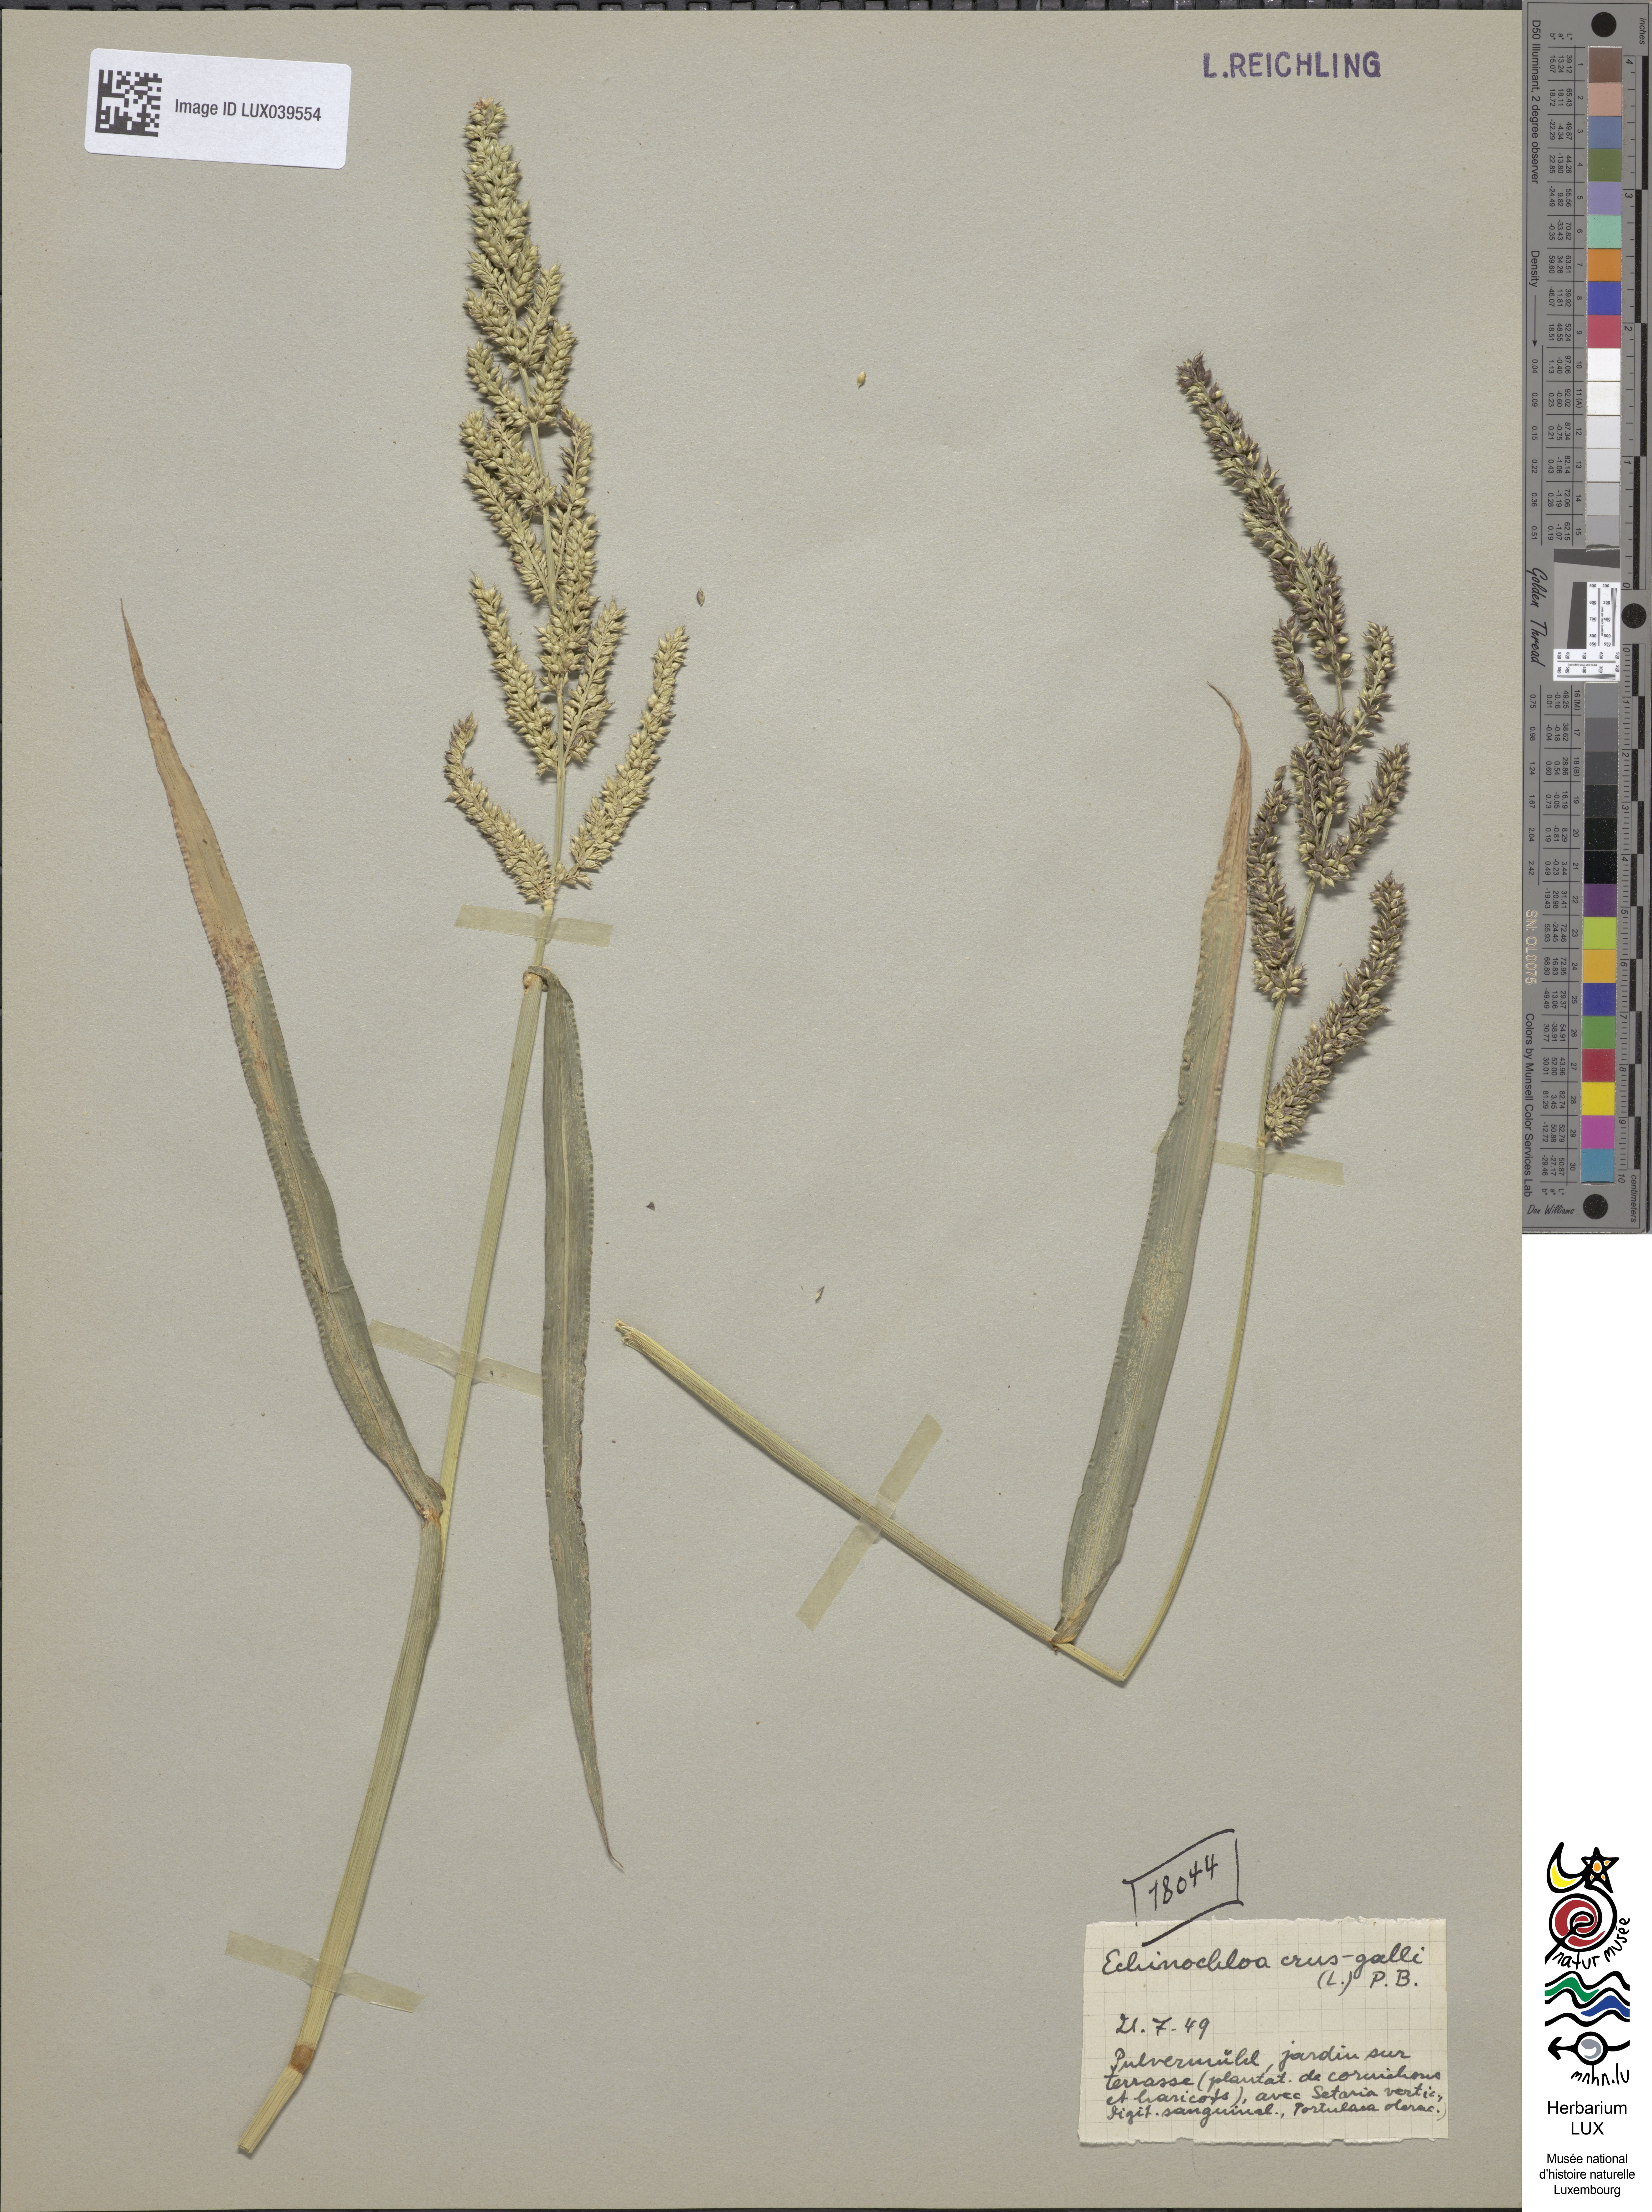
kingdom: Plantae
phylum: Tracheophyta
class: Liliopsida
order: Poales
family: Poaceae
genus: Echinochloa
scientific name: Echinochloa crus-galli
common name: Cockspur
